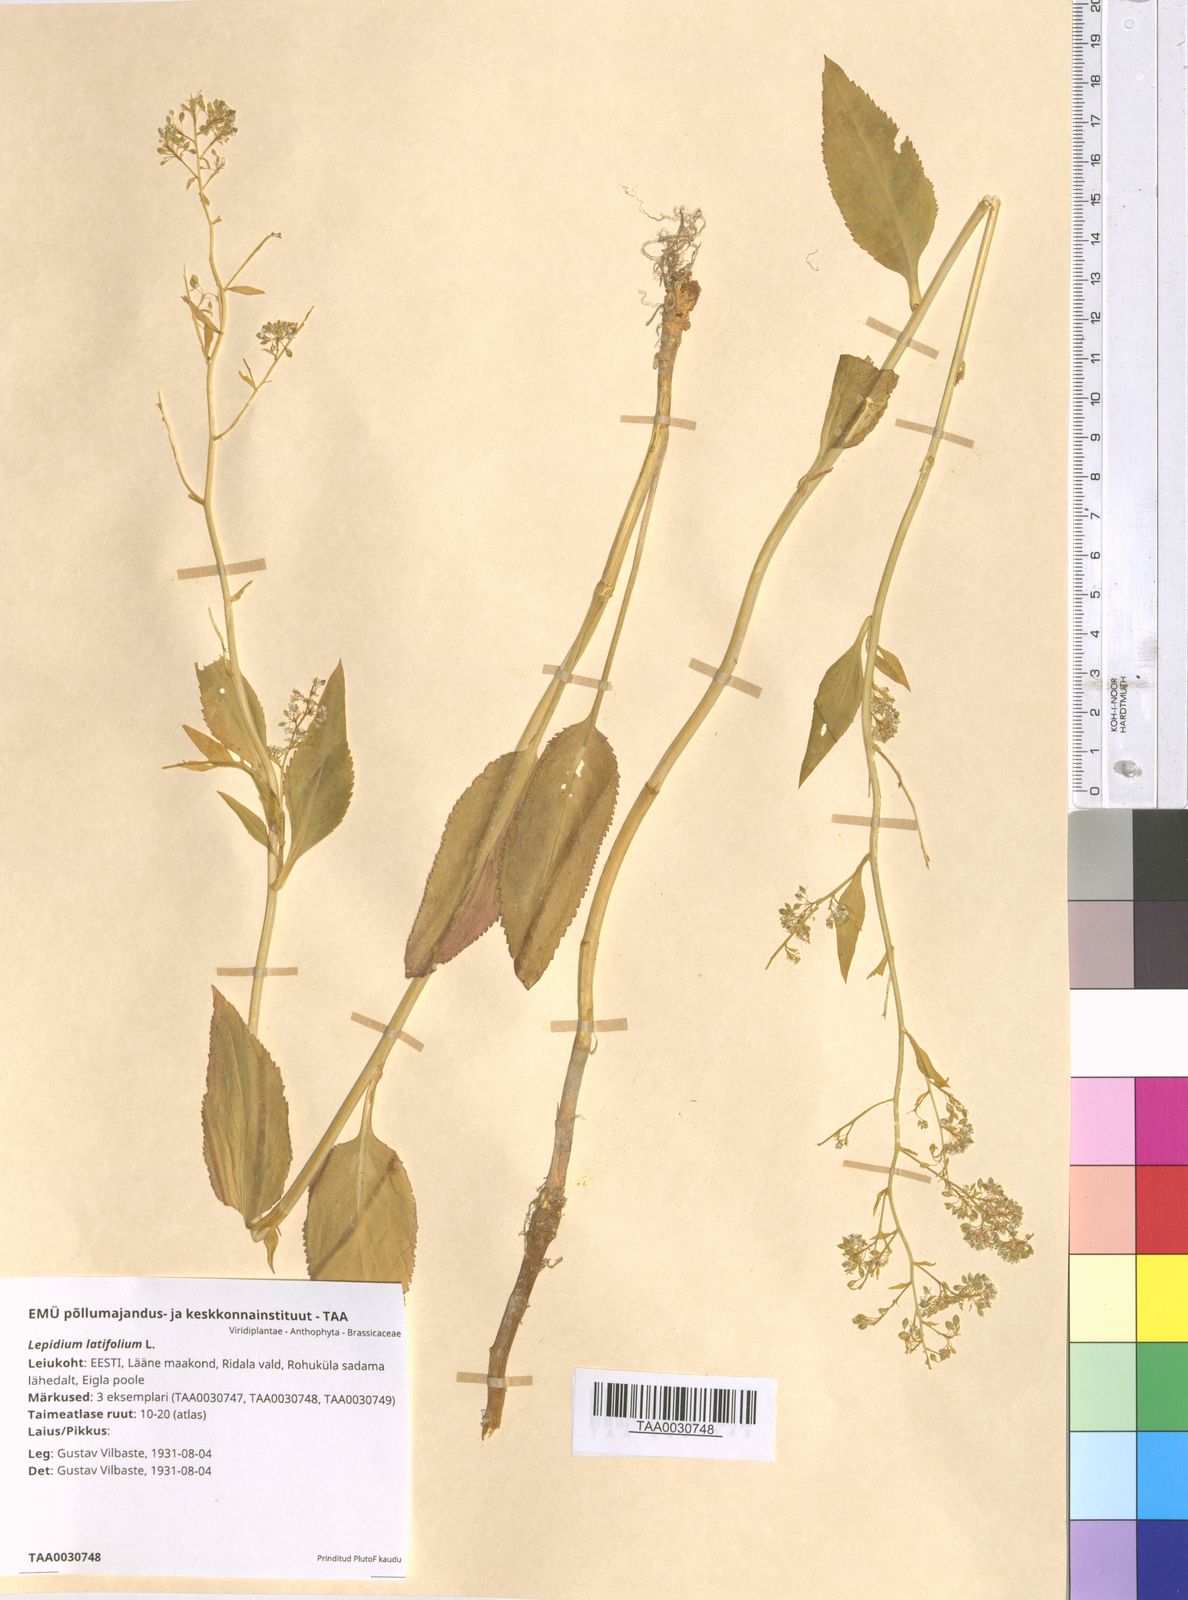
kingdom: Plantae
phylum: Tracheophyta
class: Magnoliopsida
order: Brassicales
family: Brassicaceae
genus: Lepidium
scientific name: Lepidium latifolium
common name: Dittander
